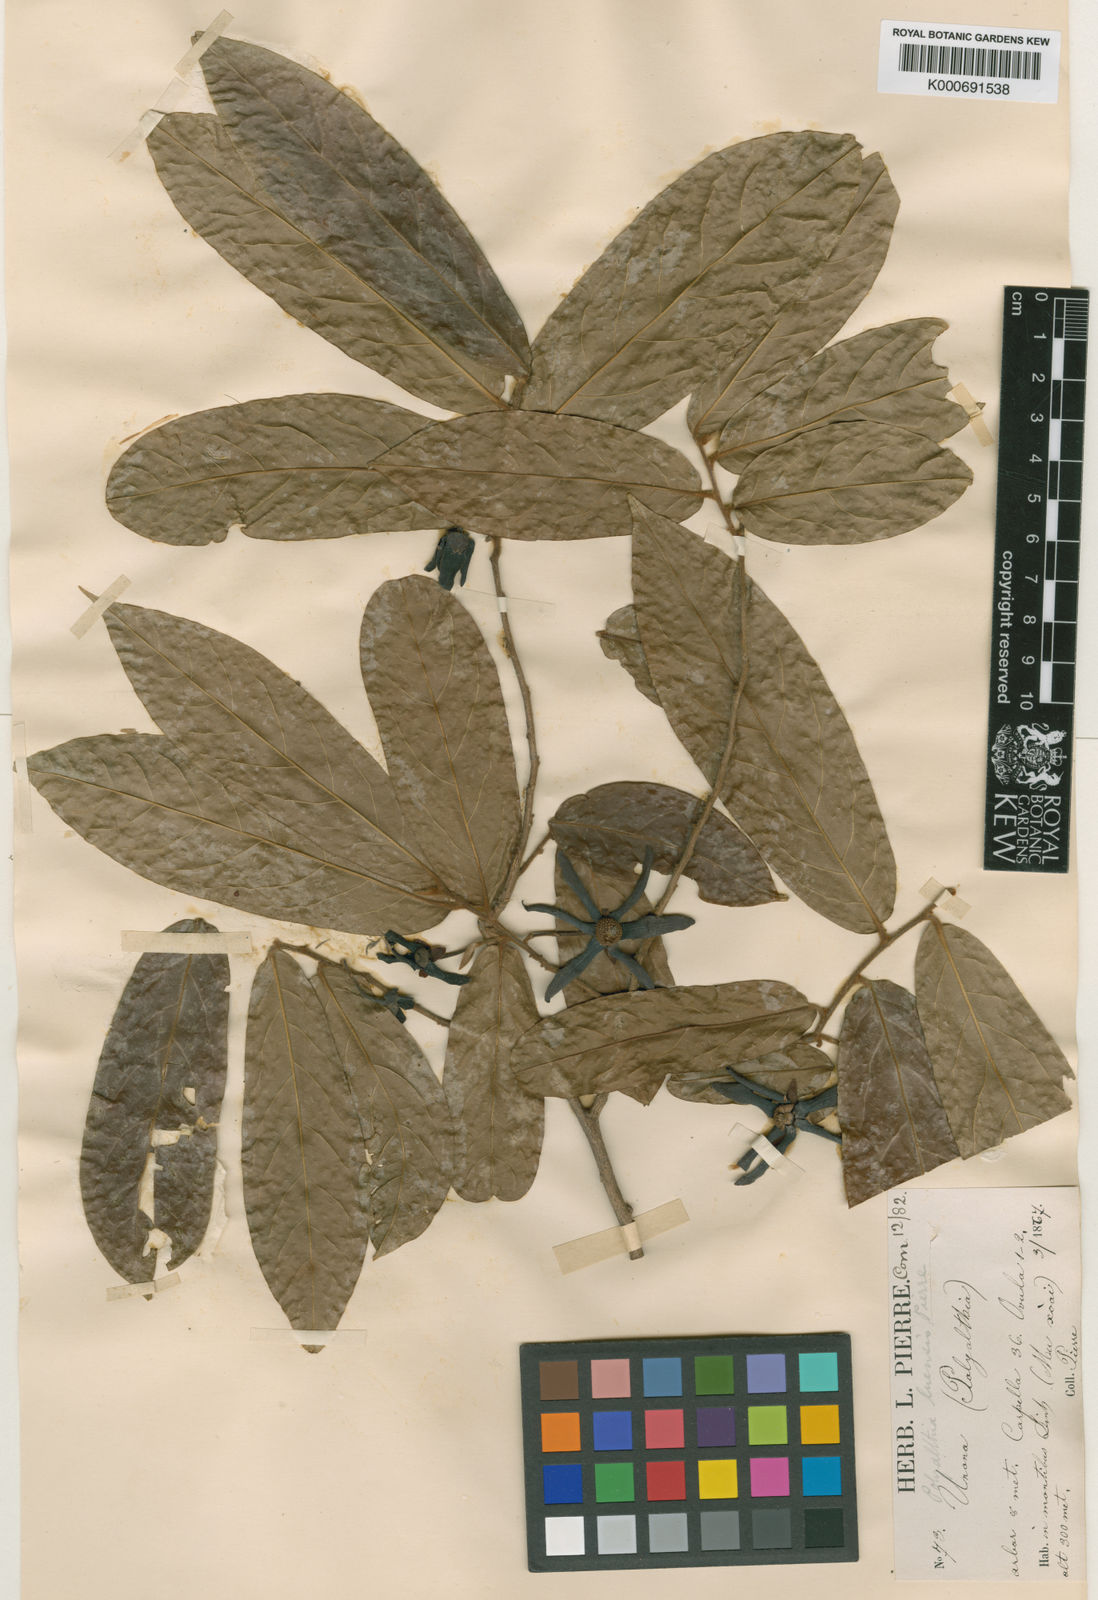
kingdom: Plantae
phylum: Tracheophyta
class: Magnoliopsida
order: Magnoliales
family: Annonaceae
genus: Polyalthia
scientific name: Polyalthia luensis
